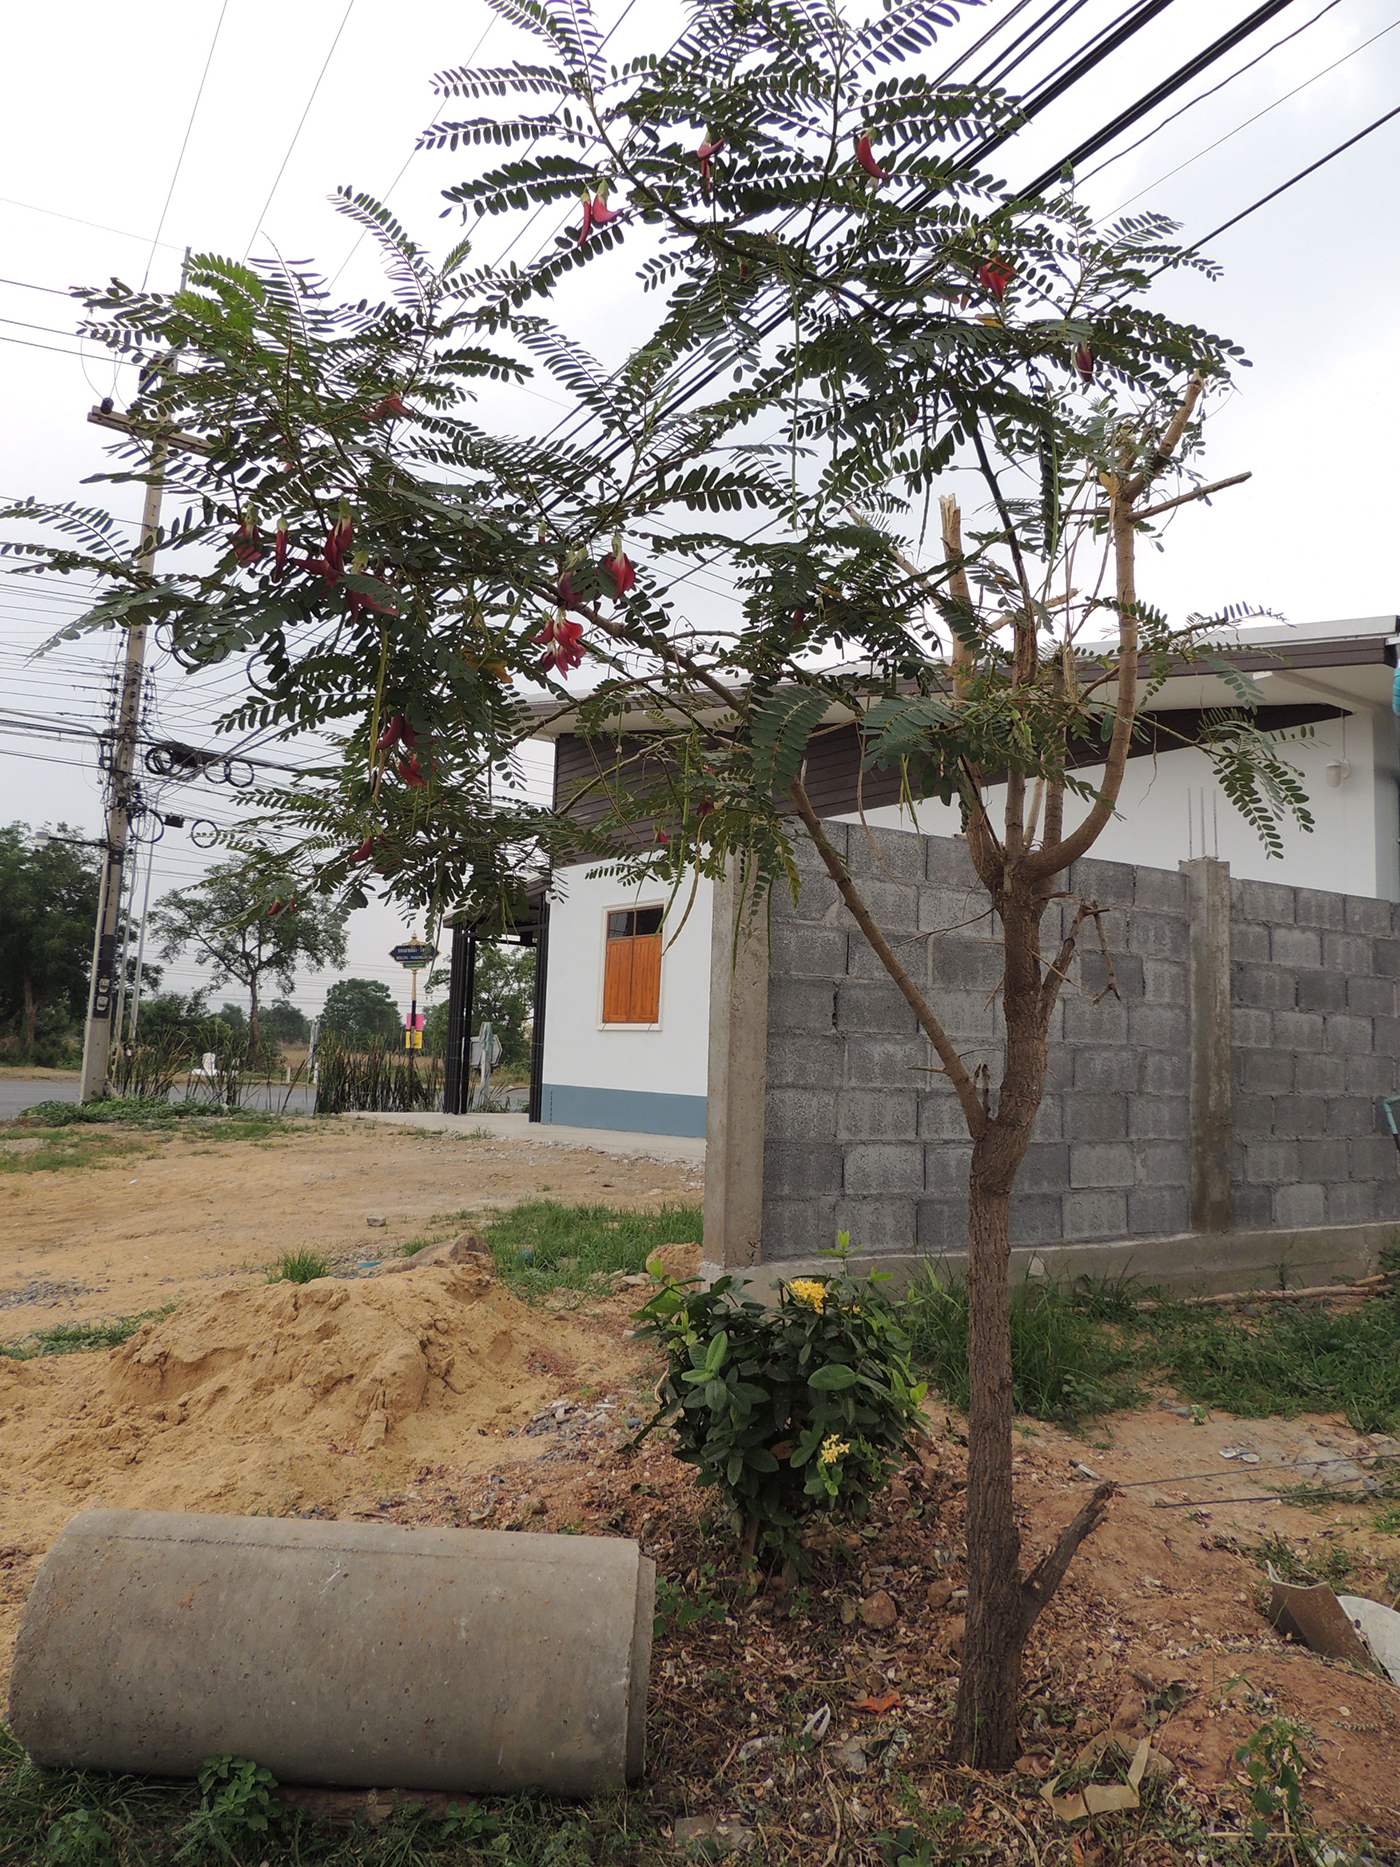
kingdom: Plantae
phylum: Tracheophyta
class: Magnoliopsida
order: Fabales
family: Fabaceae
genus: Sesbania
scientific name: Sesbania grandiflora
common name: Vegetable-hummingbird
